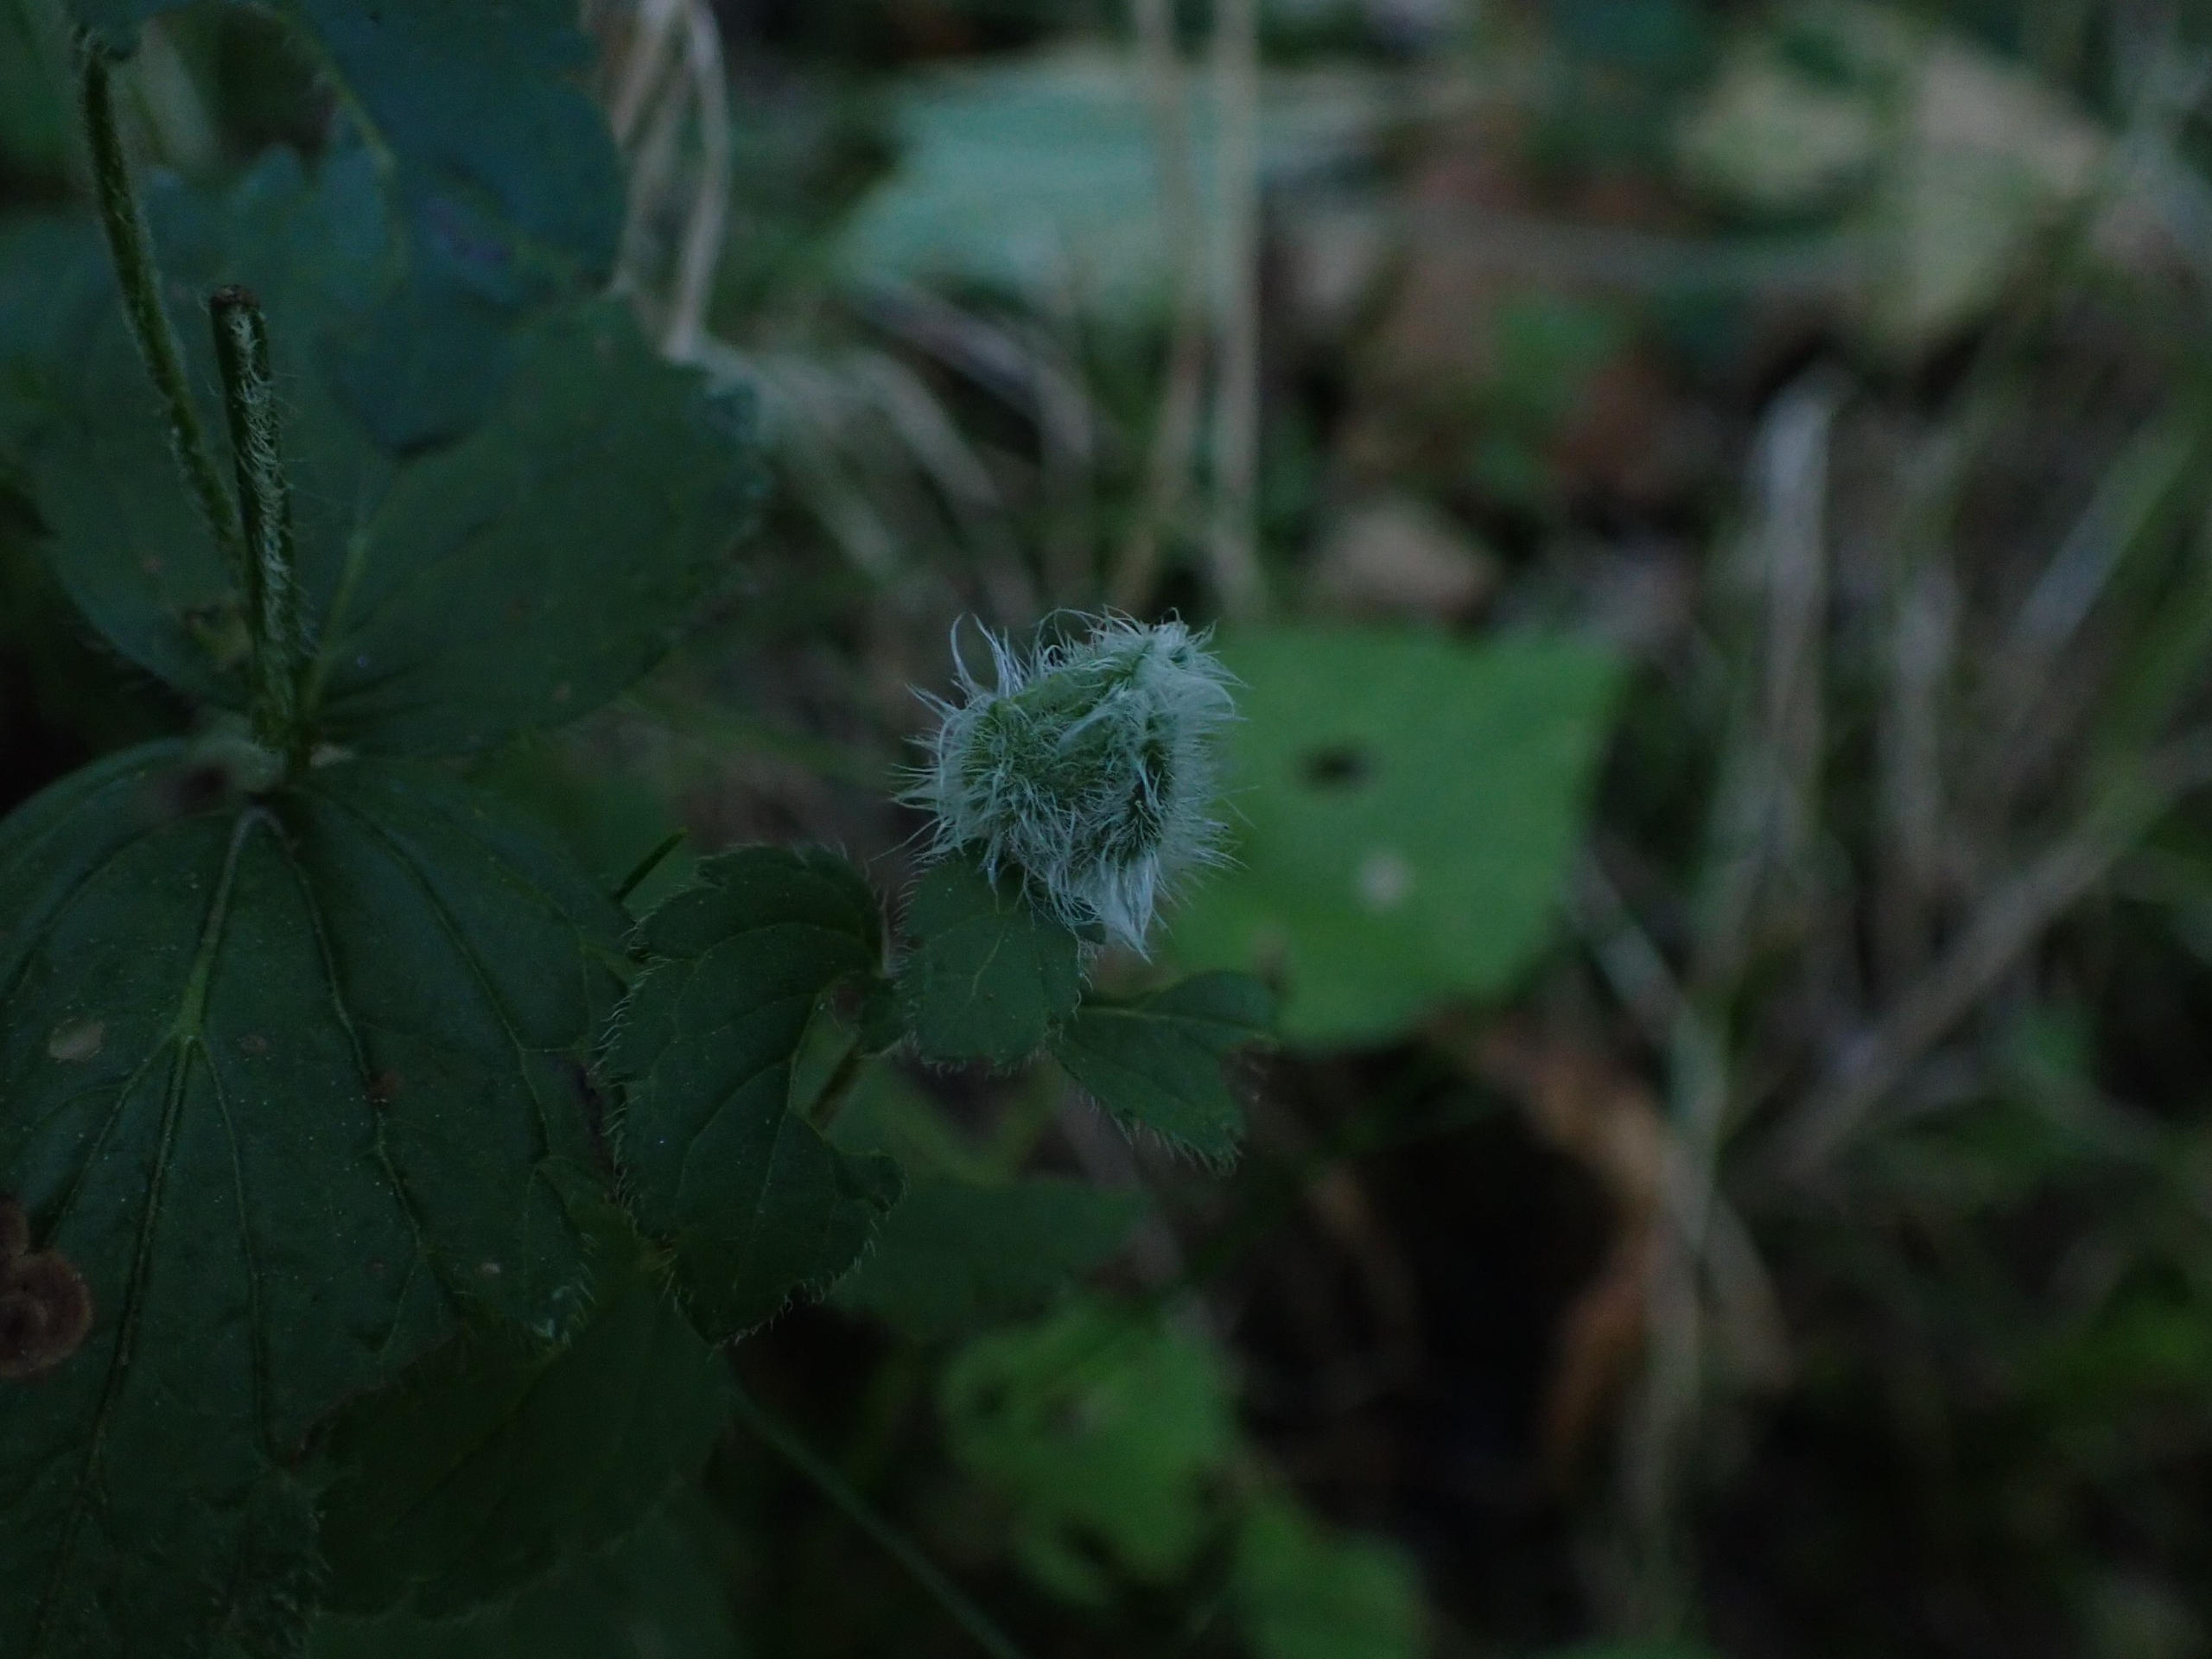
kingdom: Animalia
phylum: Arthropoda
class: Insecta
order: Diptera
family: Cecidomyiidae
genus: Jaapiella
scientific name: Jaapiella veronicae
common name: Ærenprisgalmyg
